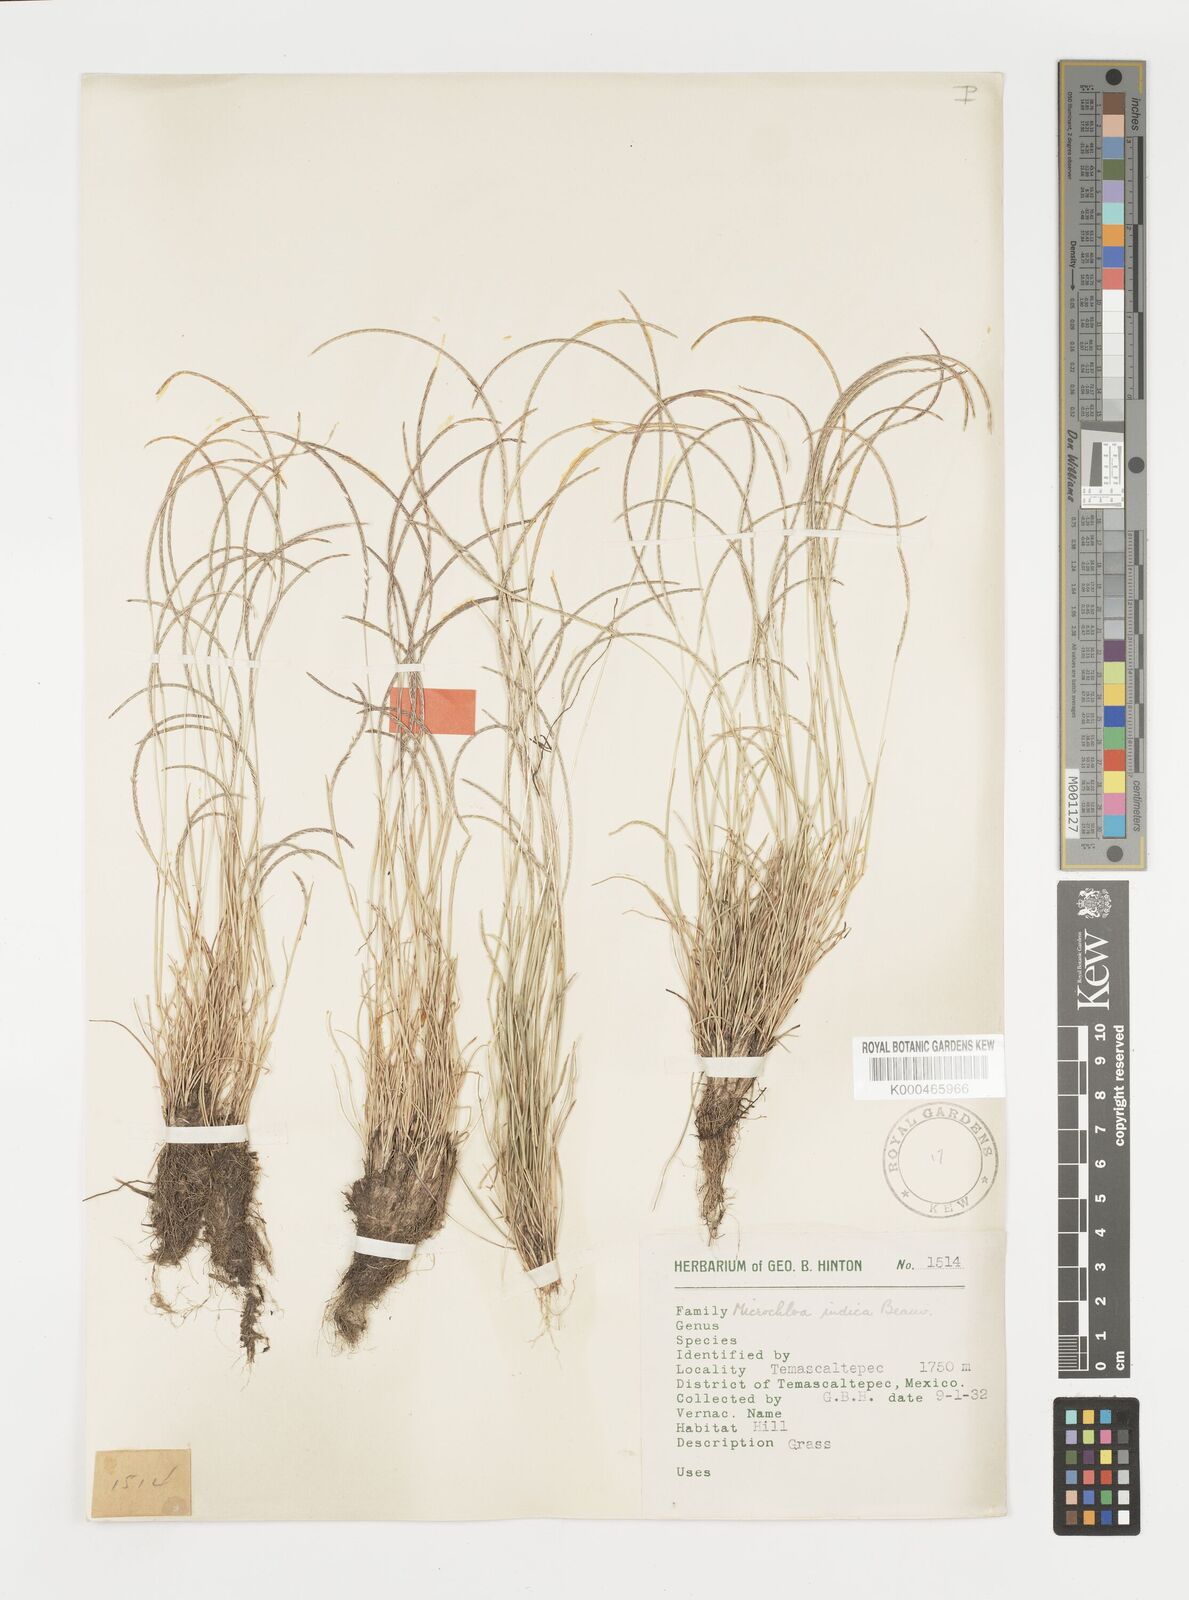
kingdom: Plantae
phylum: Tracheophyta
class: Liliopsida
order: Poales
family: Poaceae
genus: Microchloa
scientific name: Microchloa kunthii
